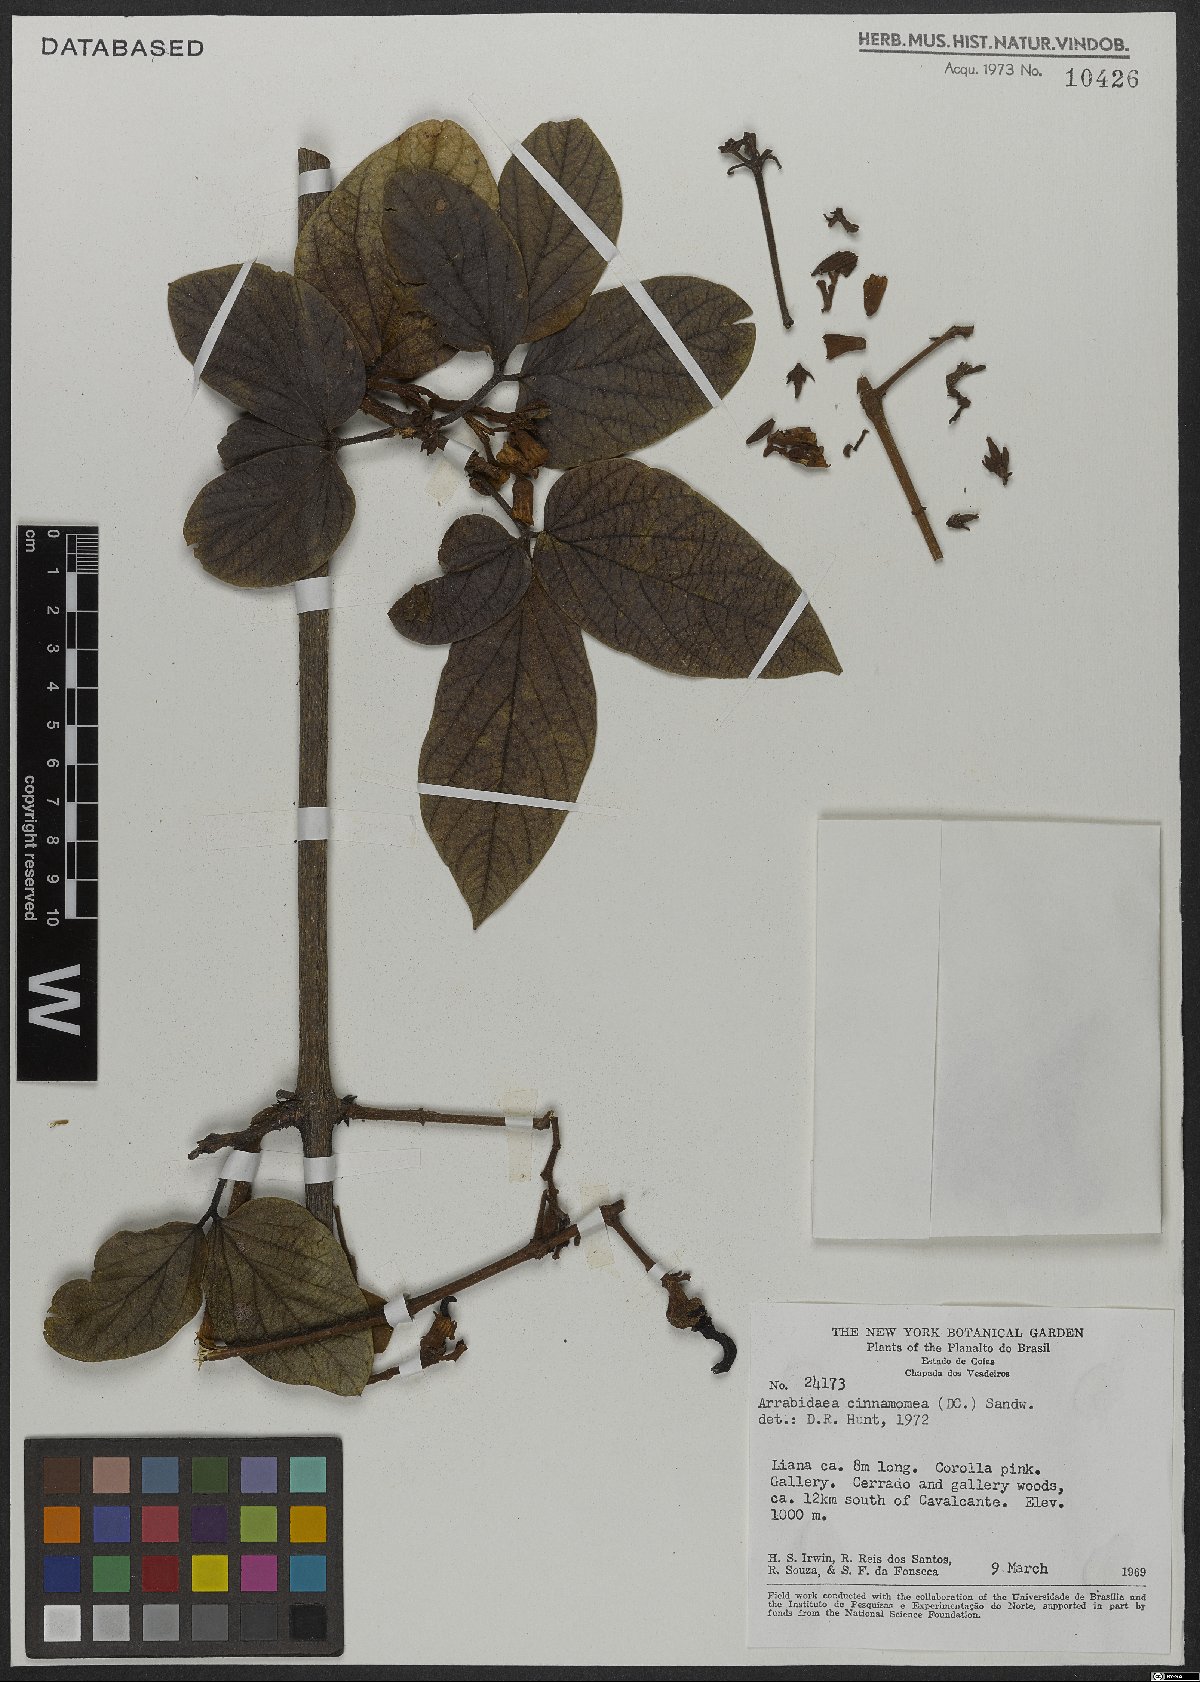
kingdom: Plantae
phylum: Tracheophyta
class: Magnoliopsida
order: Lamiales
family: Bignoniaceae
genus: Fridericia
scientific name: Fridericia cinnamomea
